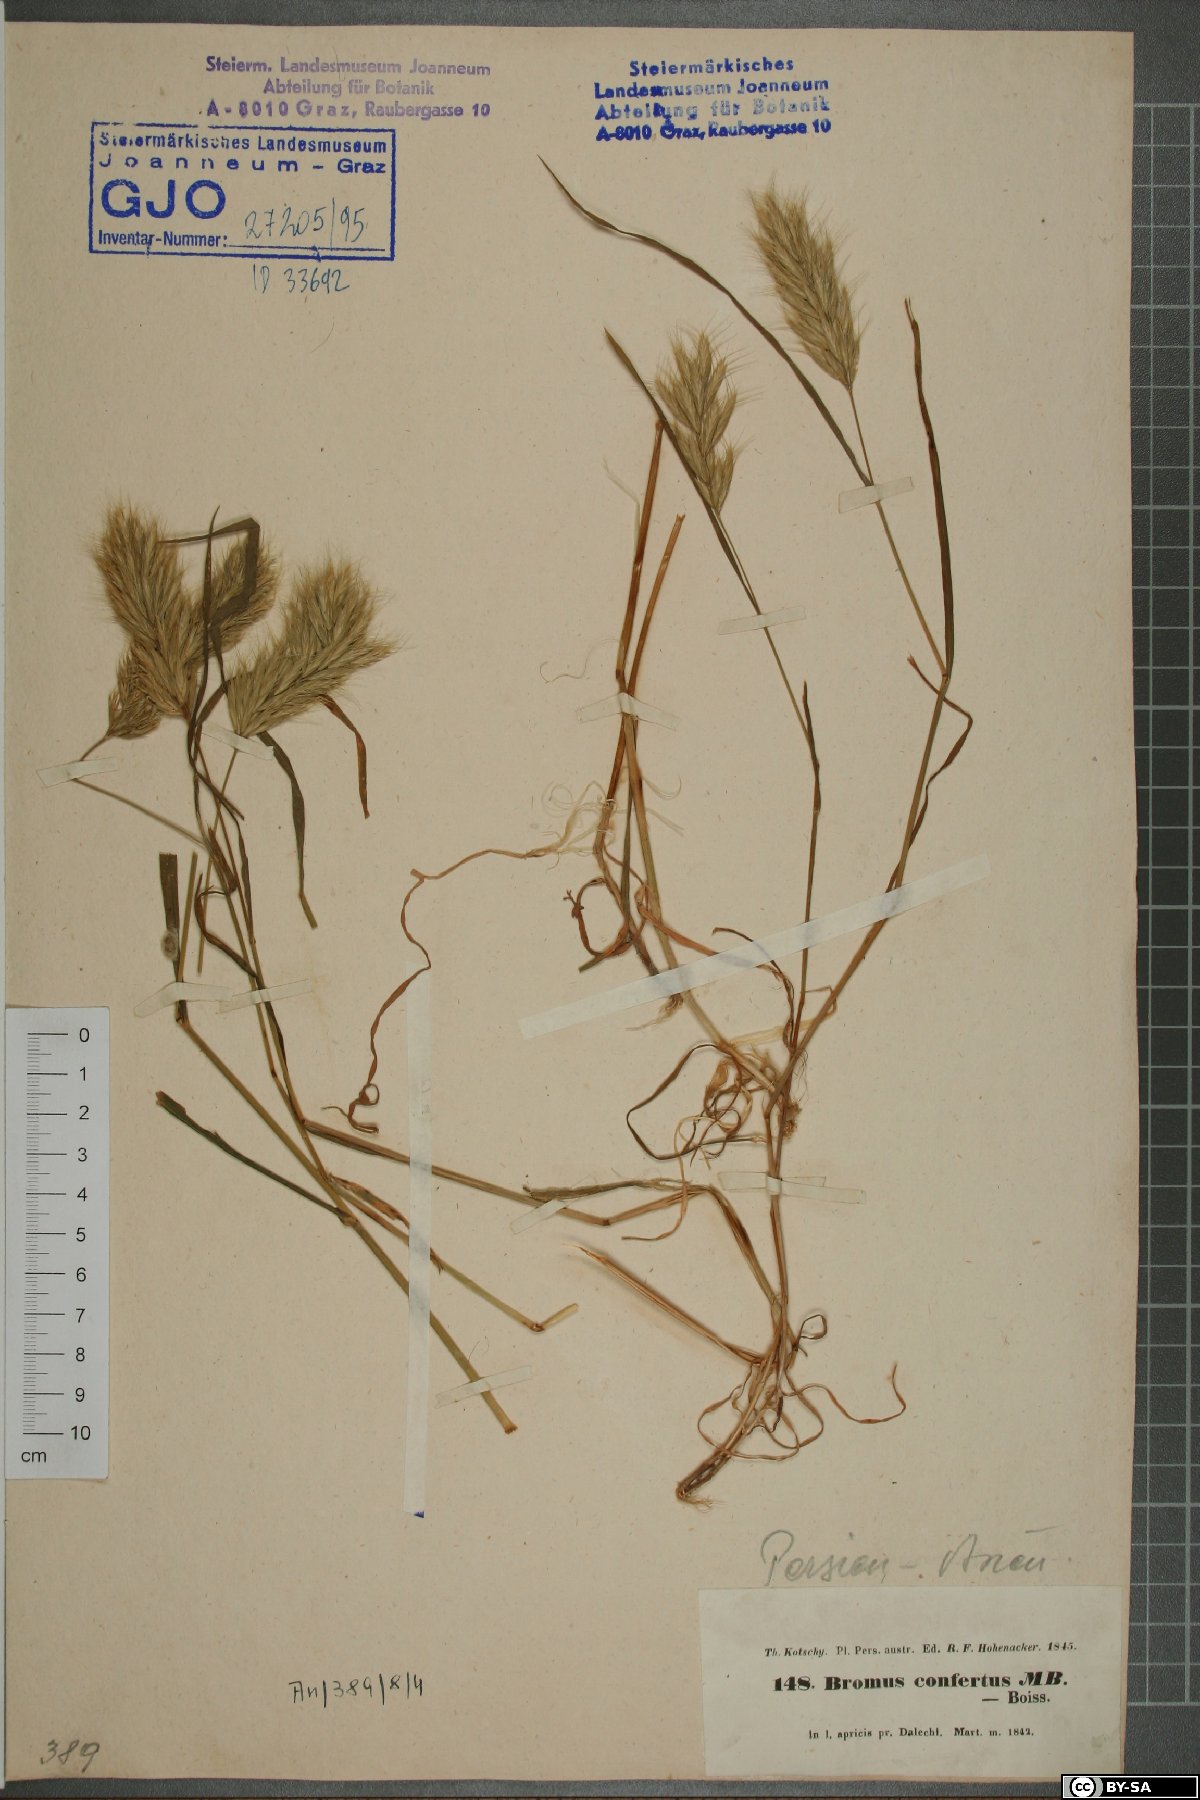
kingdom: Plantae
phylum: Tracheophyta
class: Liliopsida
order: Poales
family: Poaceae
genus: Bromus
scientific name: Bromus scoparius
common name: Broom brome
